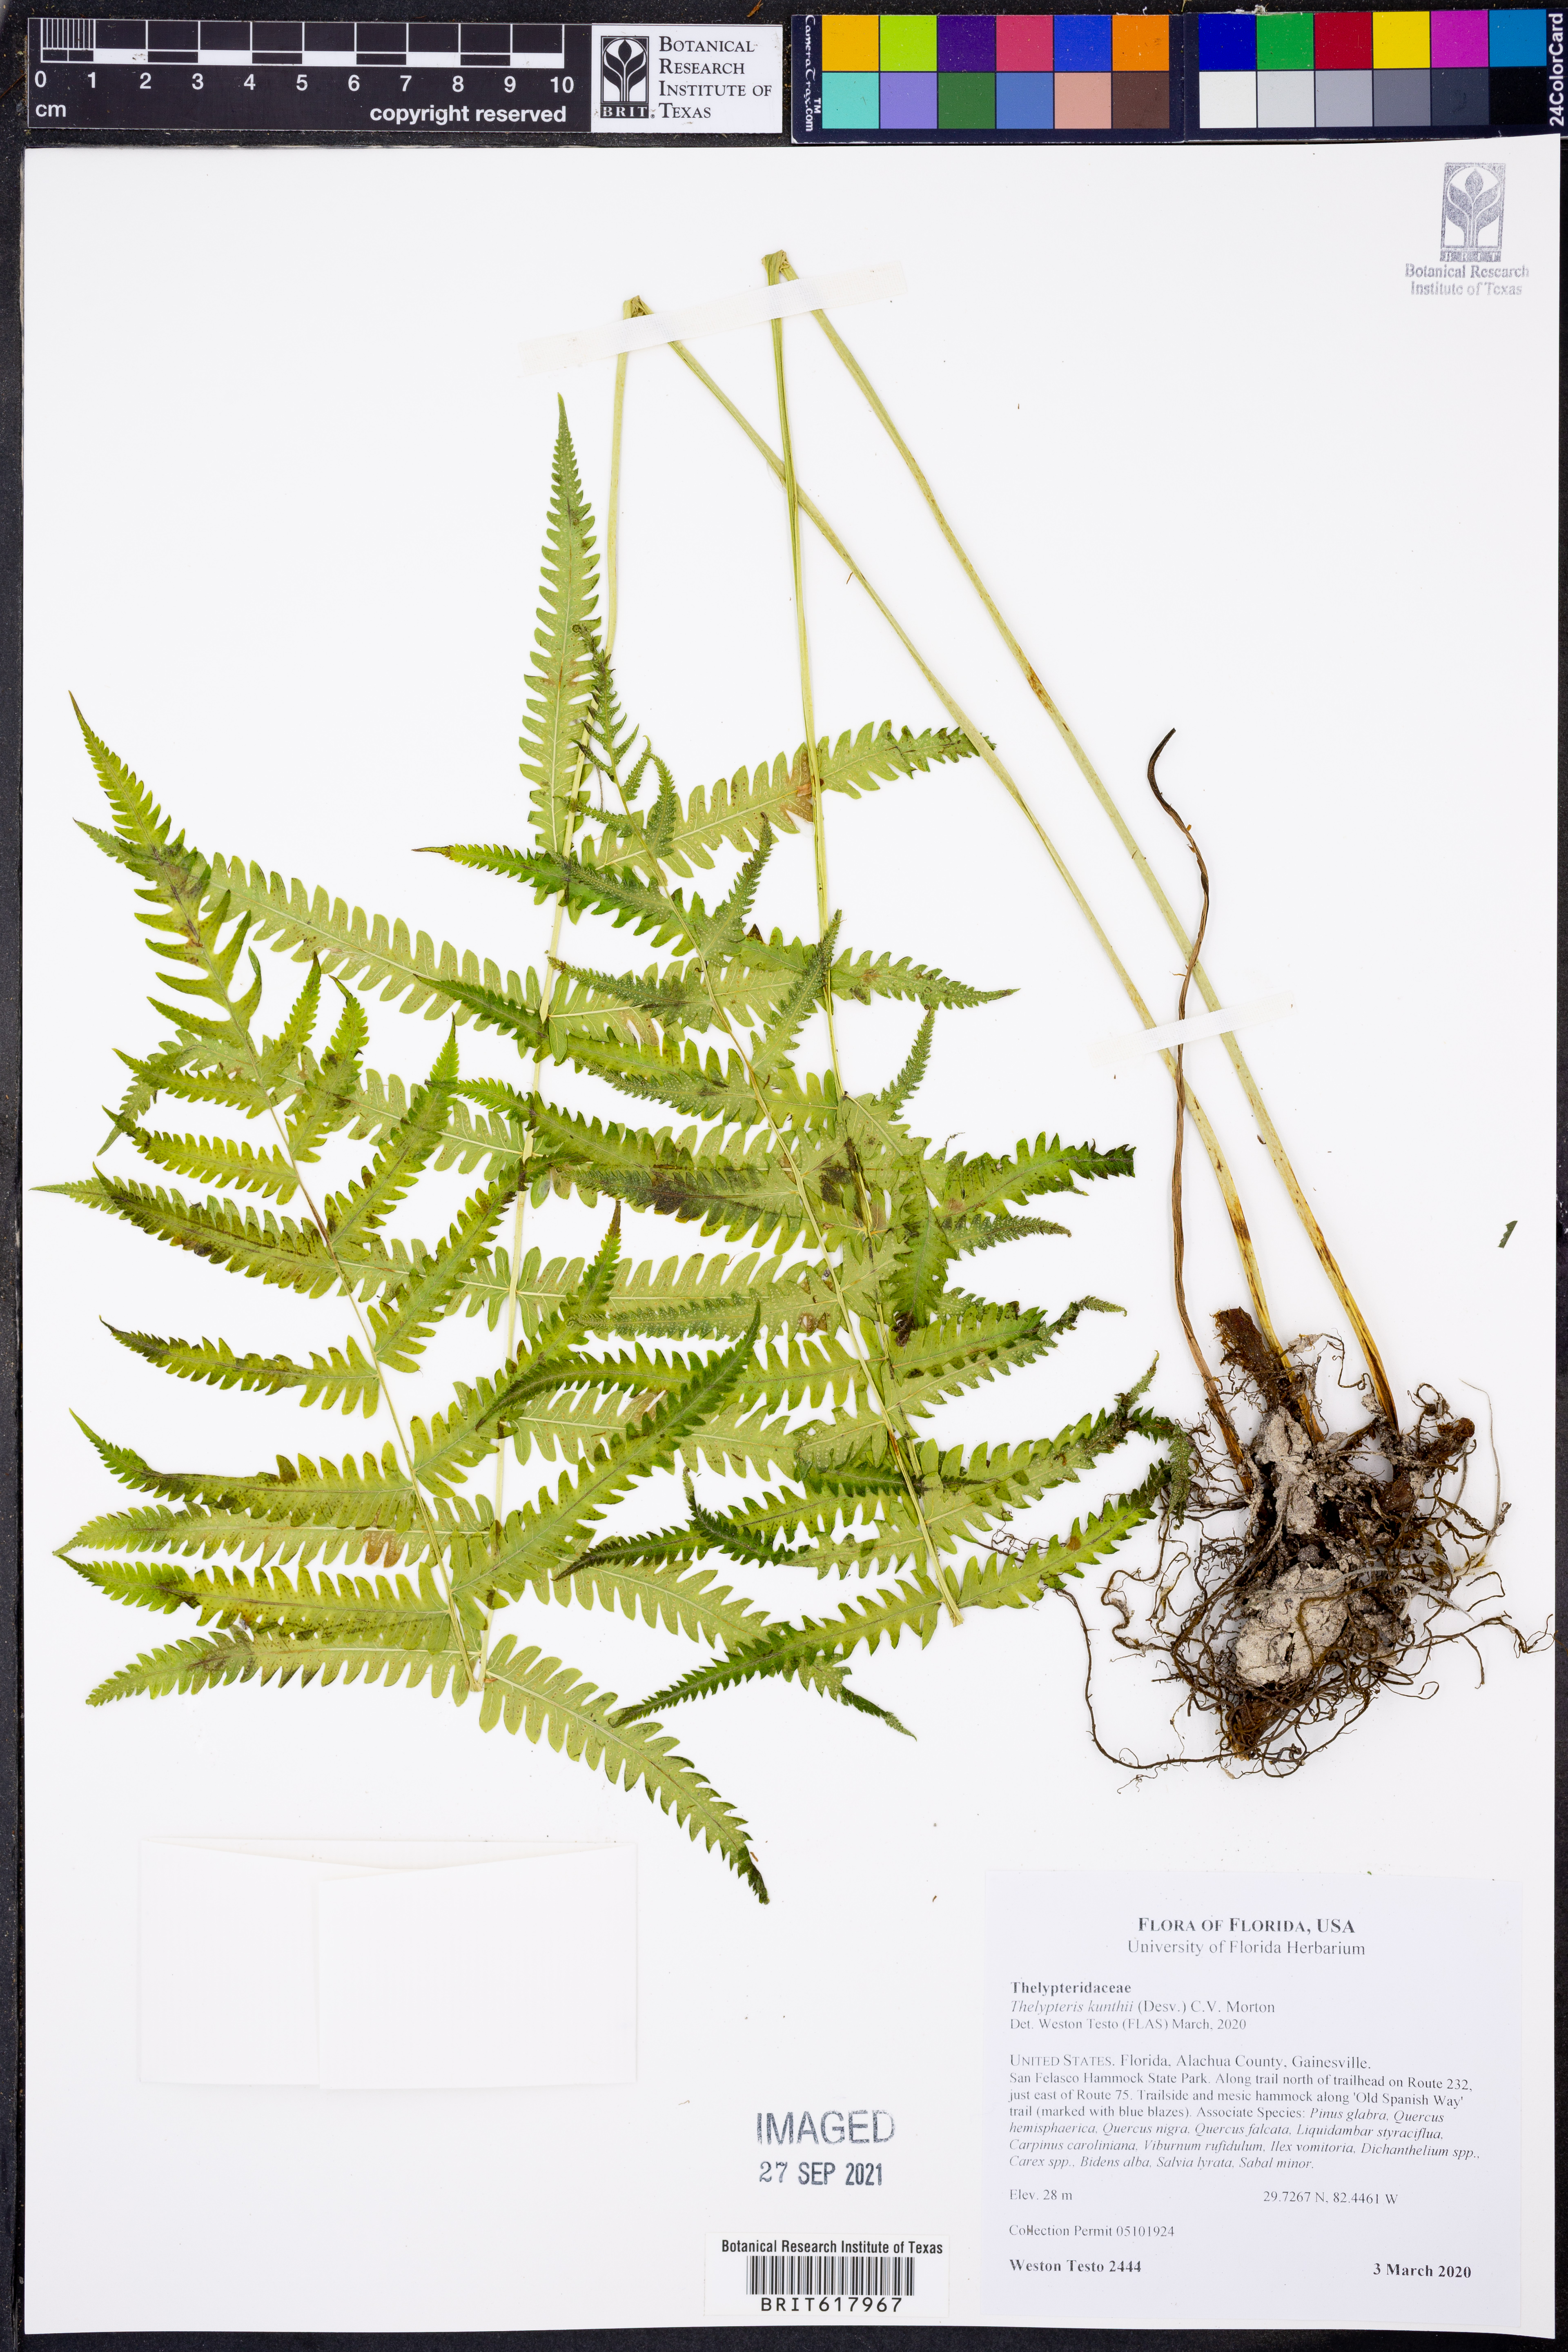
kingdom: Plantae
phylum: Tracheophyta
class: Polypodiopsida
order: Polypodiales
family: Thelypteridaceae
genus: Pelazoneuron
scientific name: Pelazoneuron kunthii
